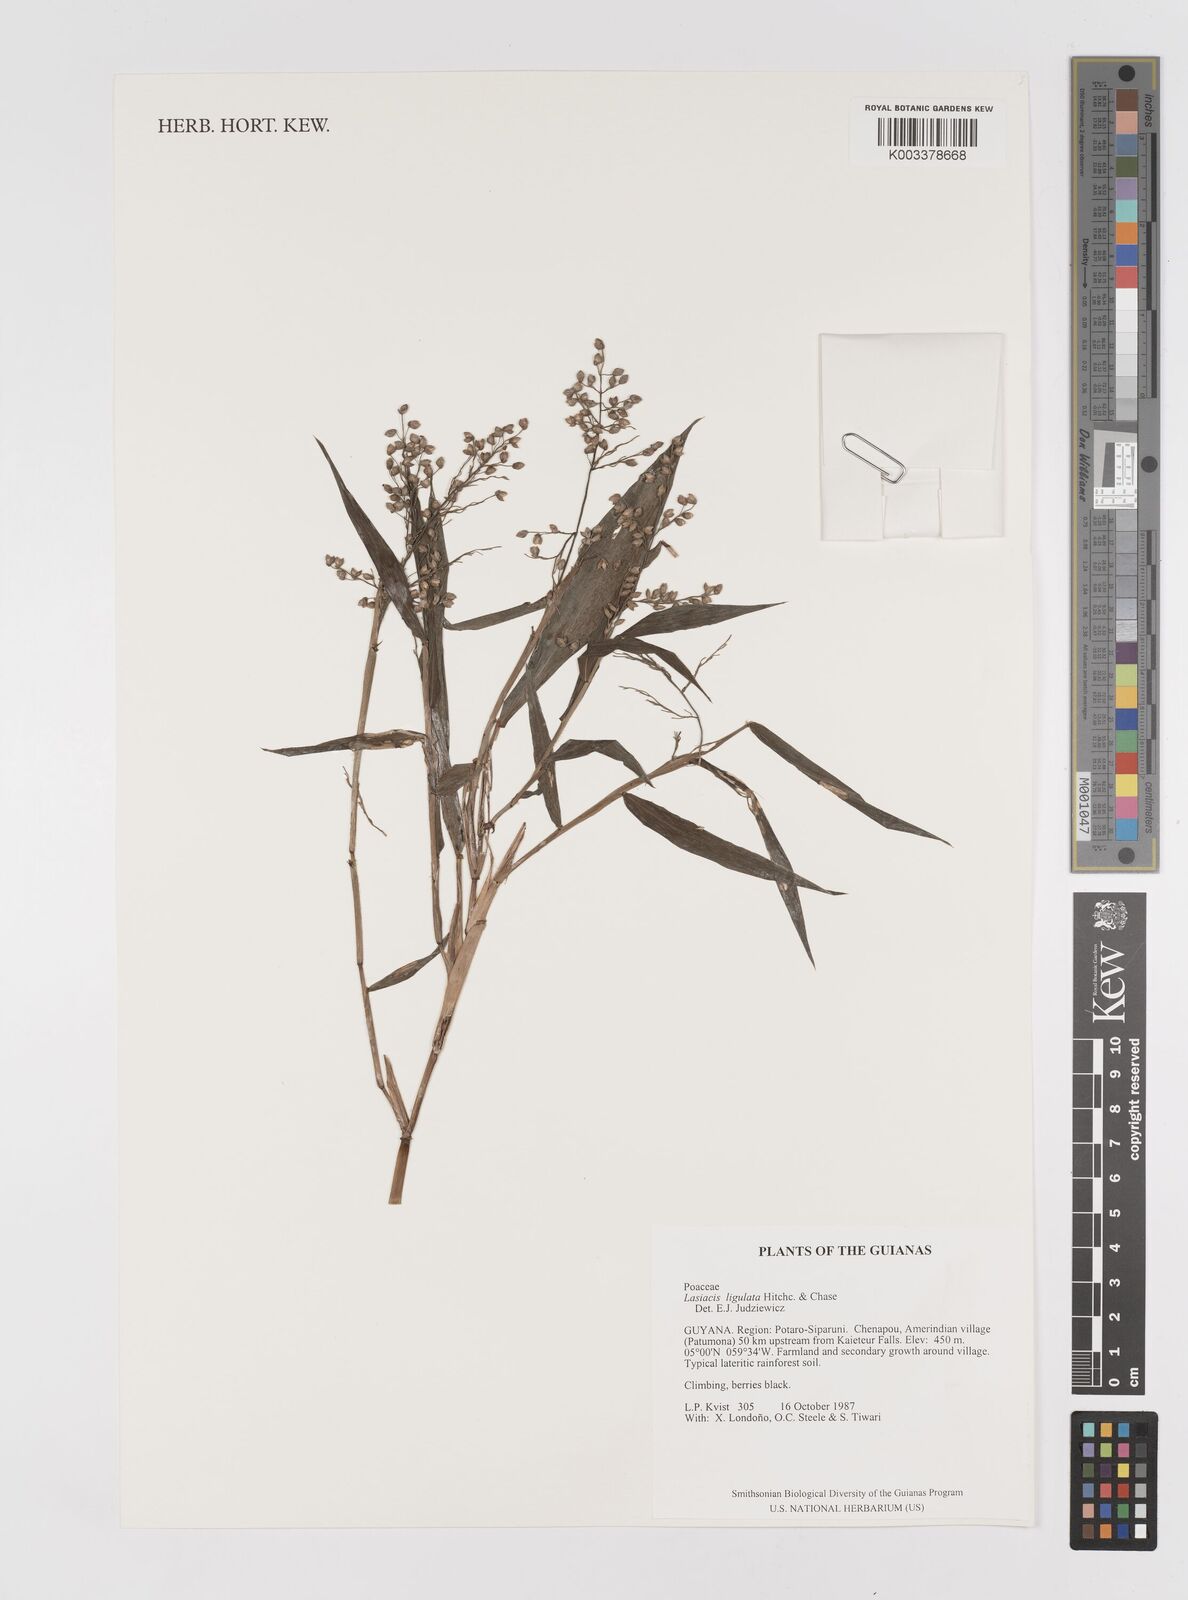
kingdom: Plantae
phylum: Tracheophyta
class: Liliopsida
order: Poales
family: Poaceae
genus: Lasiacis
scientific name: Lasiacis ligulata
